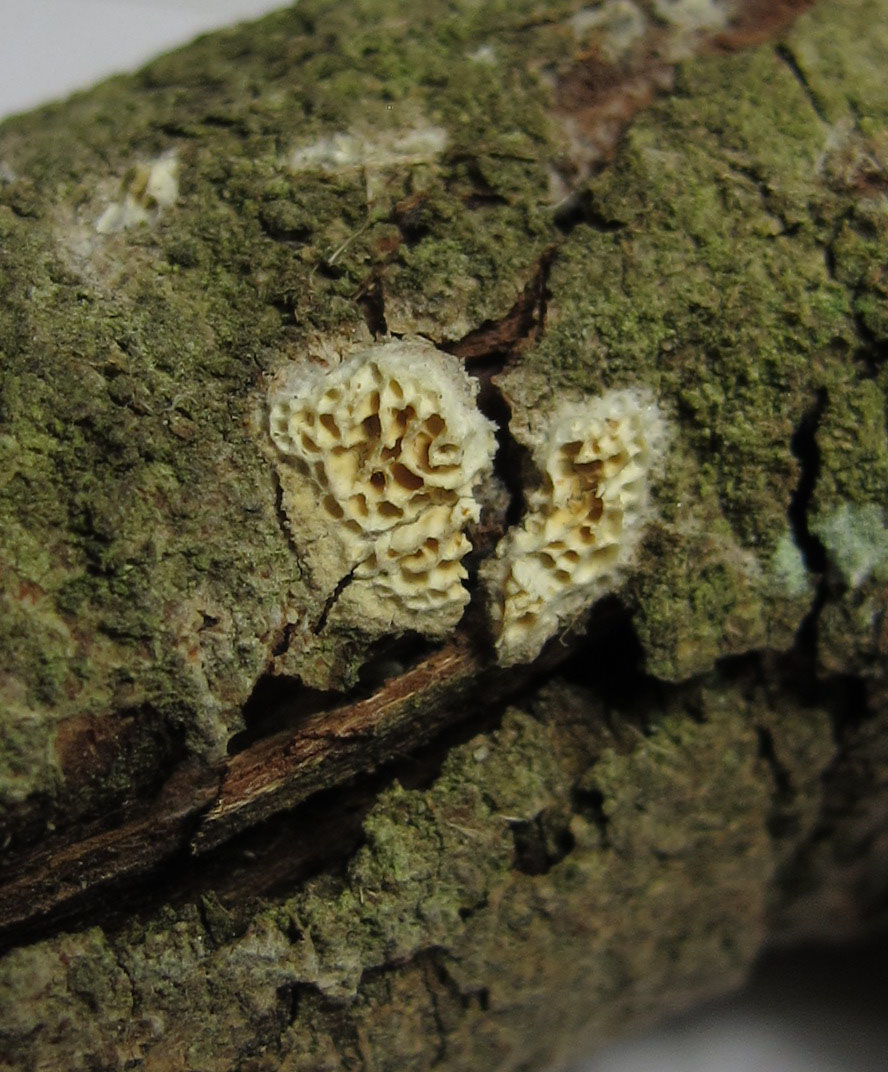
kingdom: Fungi
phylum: Basidiomycota
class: Agaricomycetes
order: Polyporales
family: Fomitopsidaceae
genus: Brunneoporus
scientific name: Brunneoporus kuzyanus
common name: brunlig sejporesvamp
